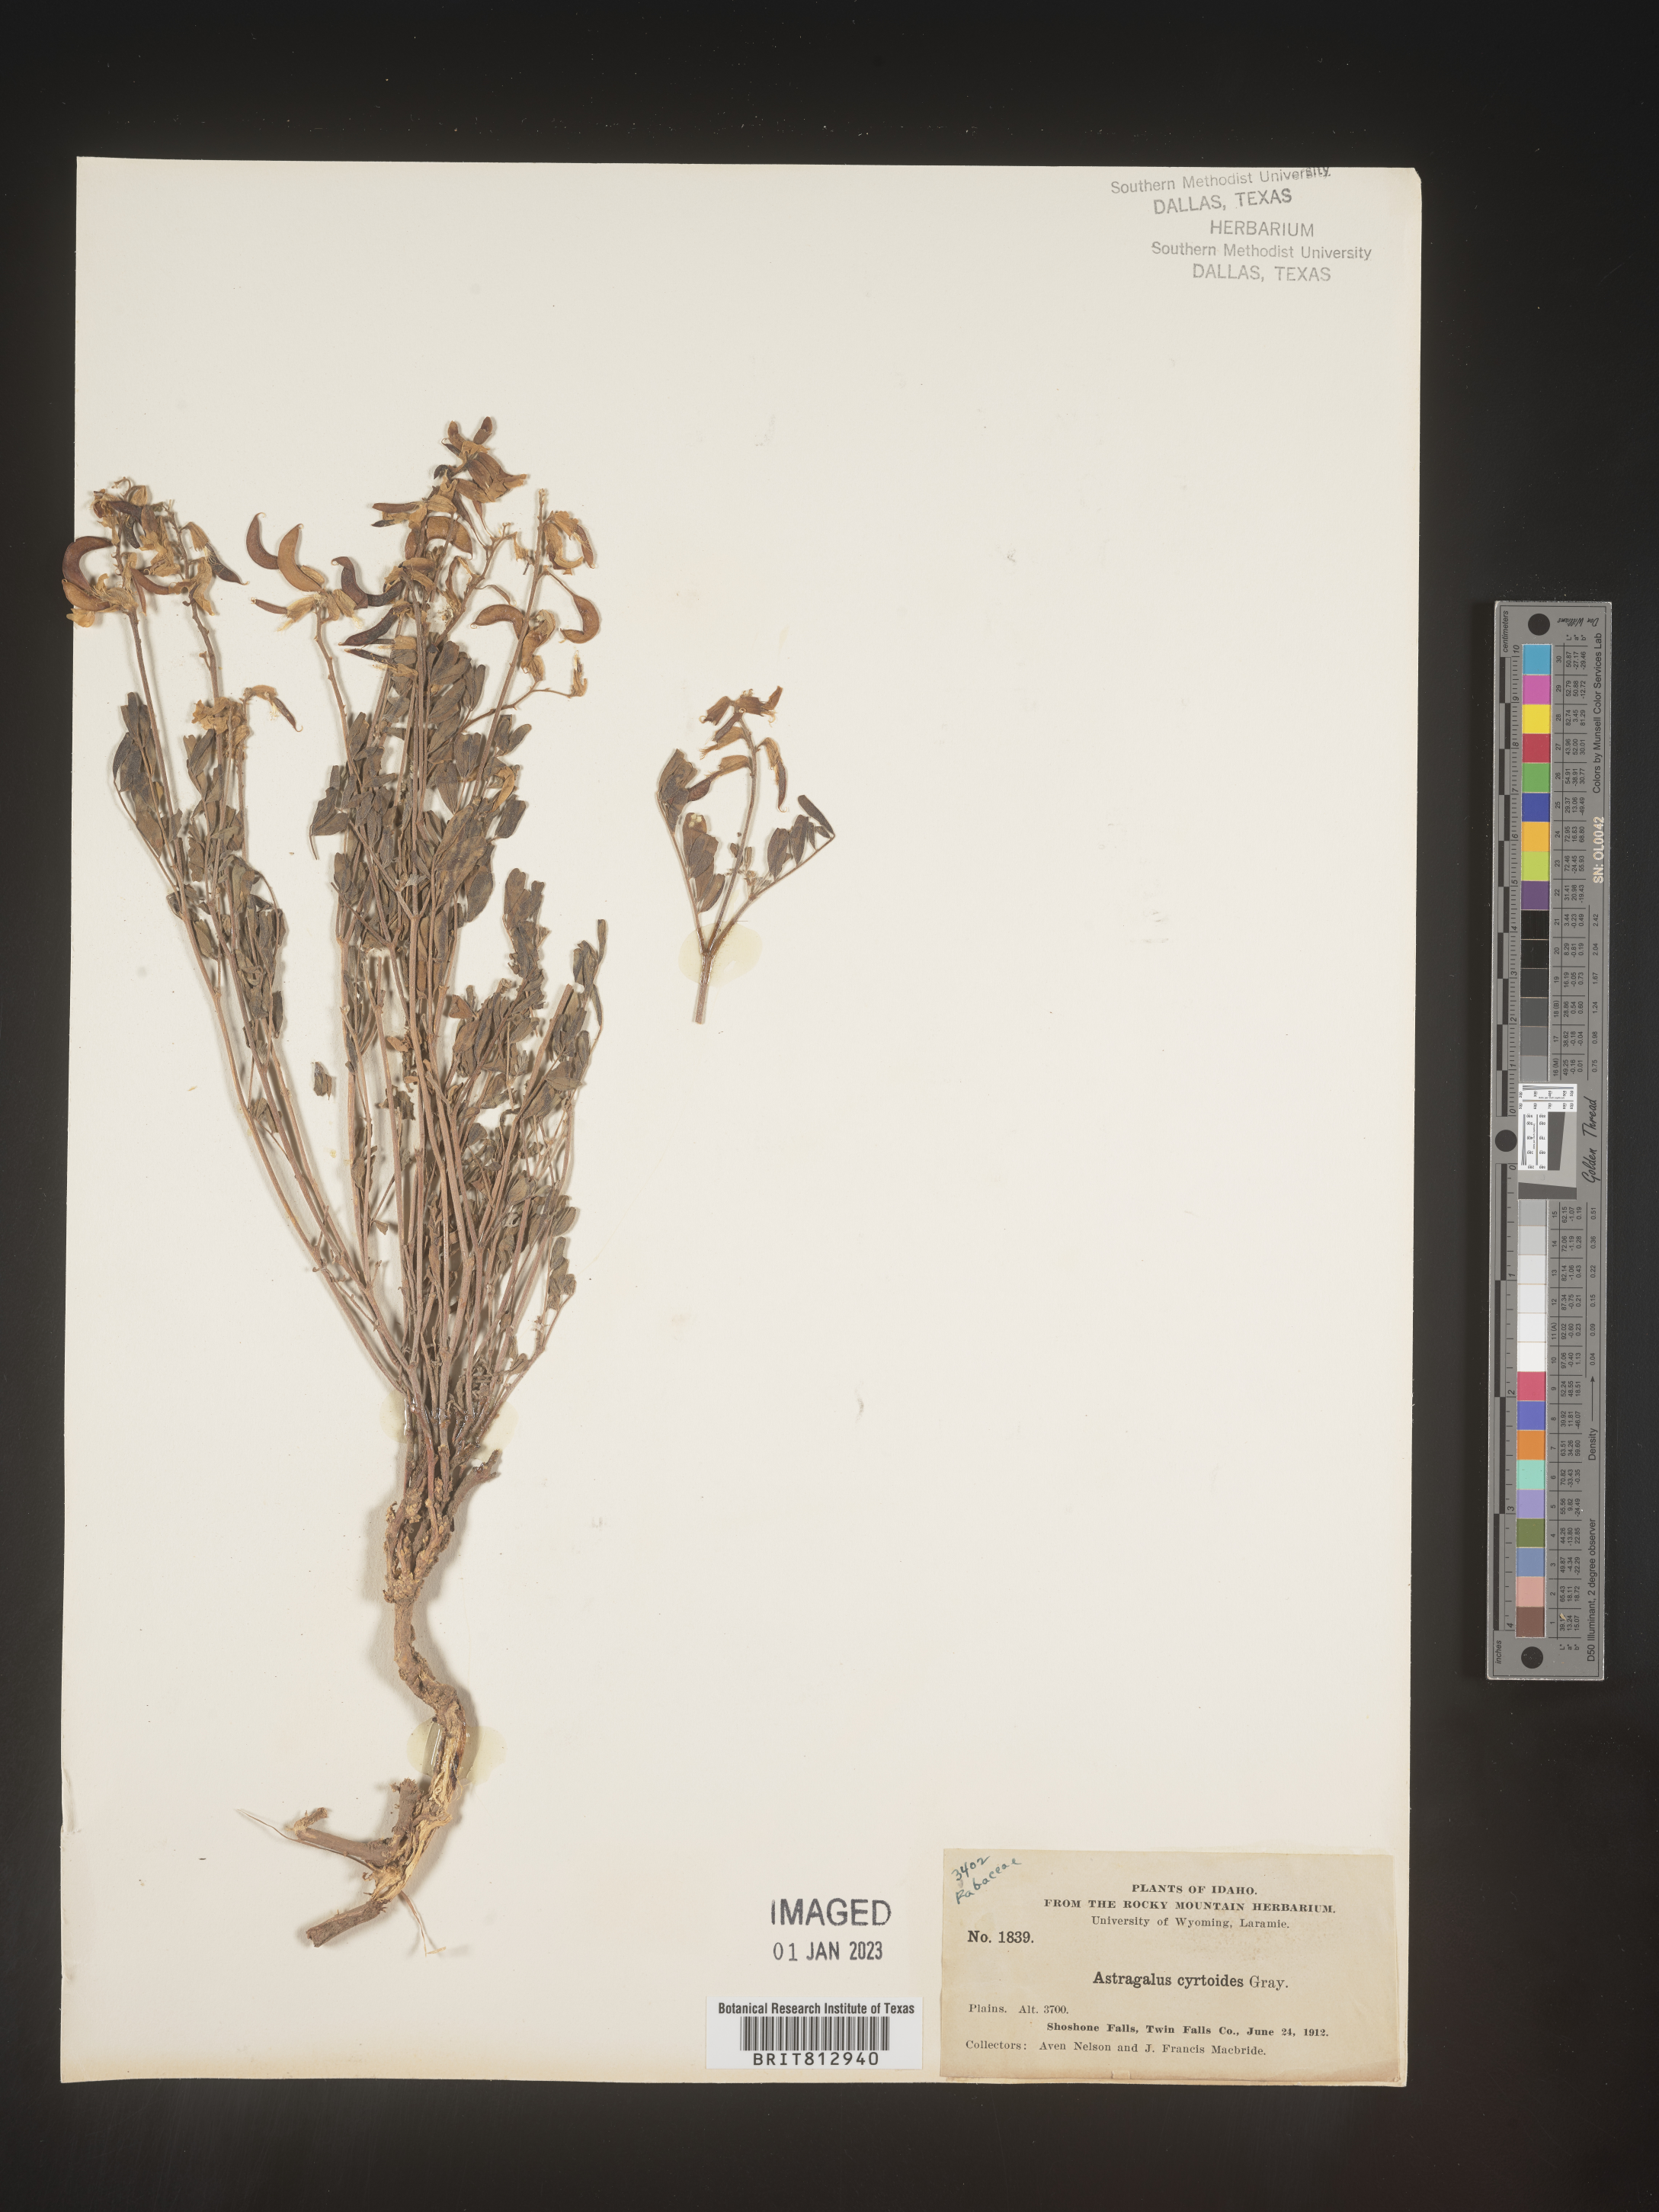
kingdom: Plantae
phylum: Tracheophyta
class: Magnoliopsida
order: Fabales
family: Fabaceae
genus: Astragalus
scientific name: Astragalus
